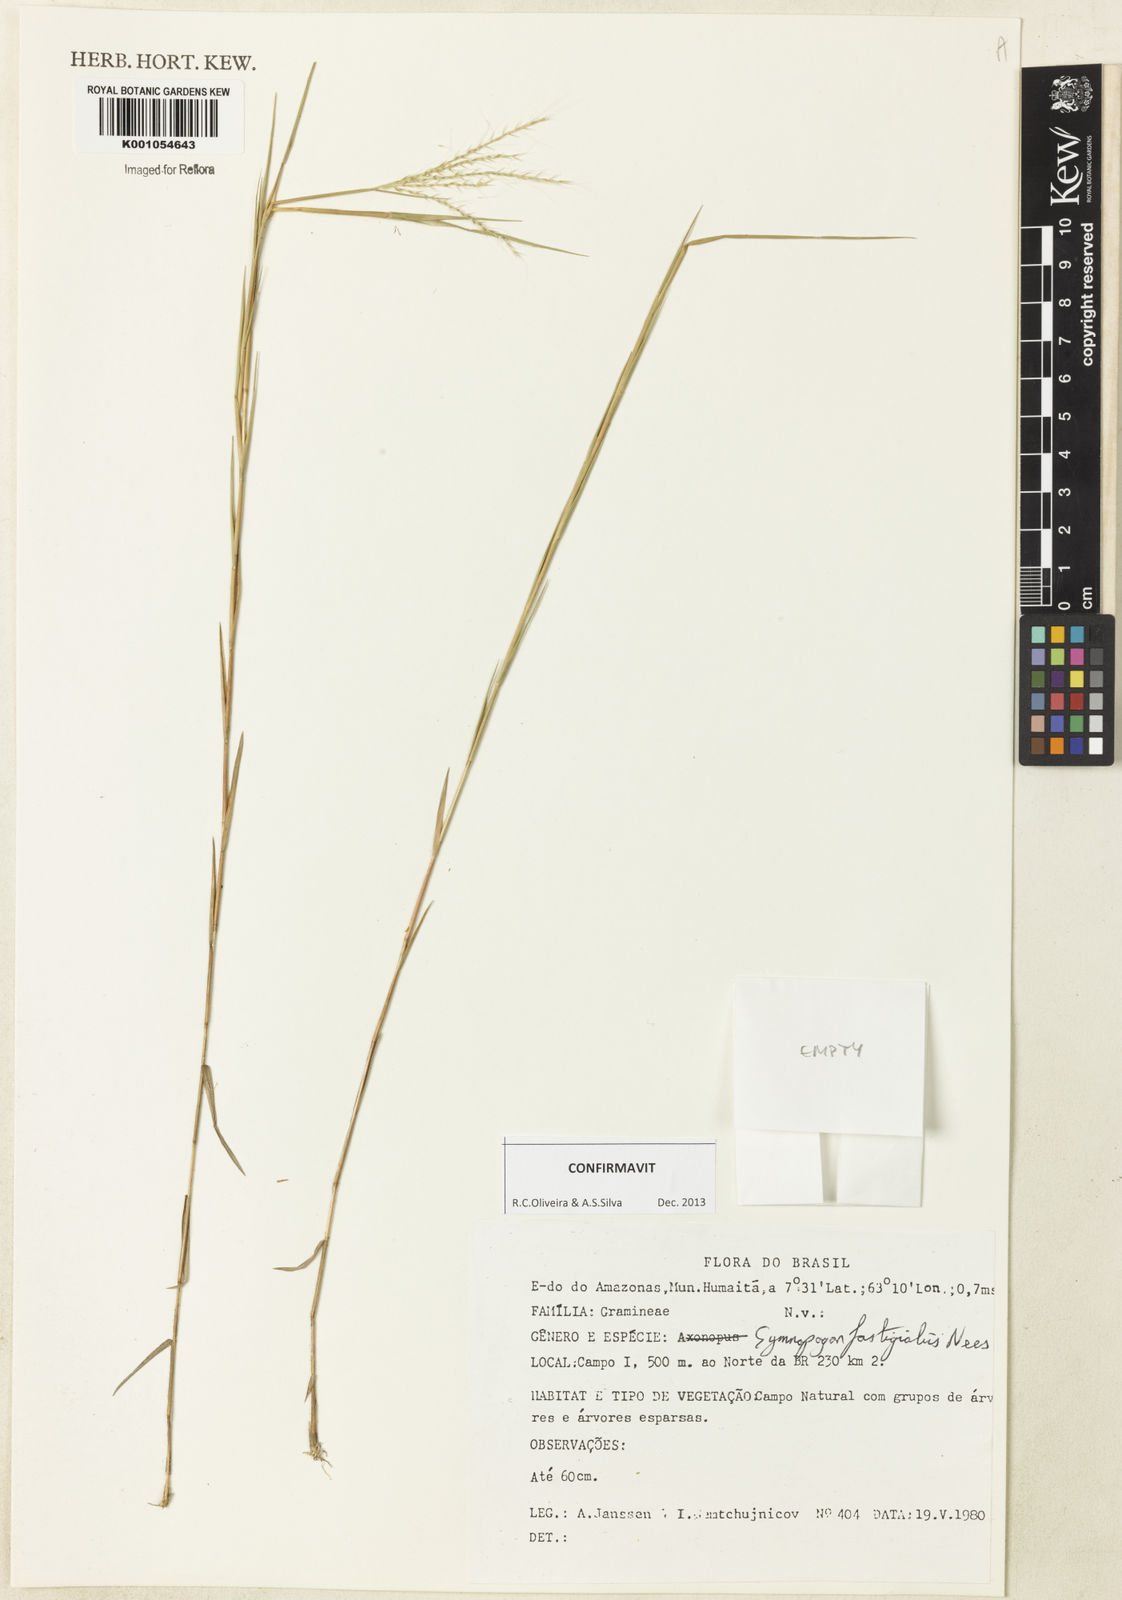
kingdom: Plantae
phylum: Tracheophyta
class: Liliopsida
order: Poales
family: Poaceae
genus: Gymnopogon
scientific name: Gymnopogon fastigiatus
